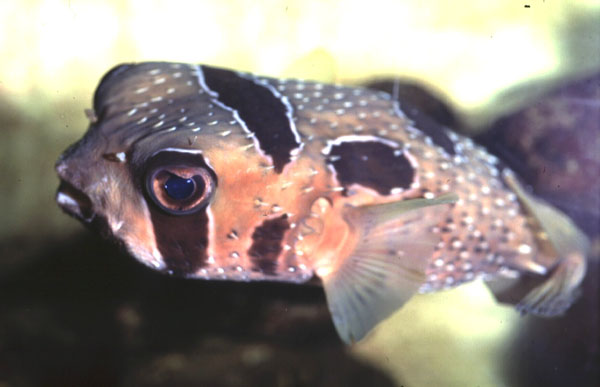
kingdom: Animalia
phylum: Chordata
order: Tetraodontiformes
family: Diodontidae
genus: Diodon
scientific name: Diodon liturosus
